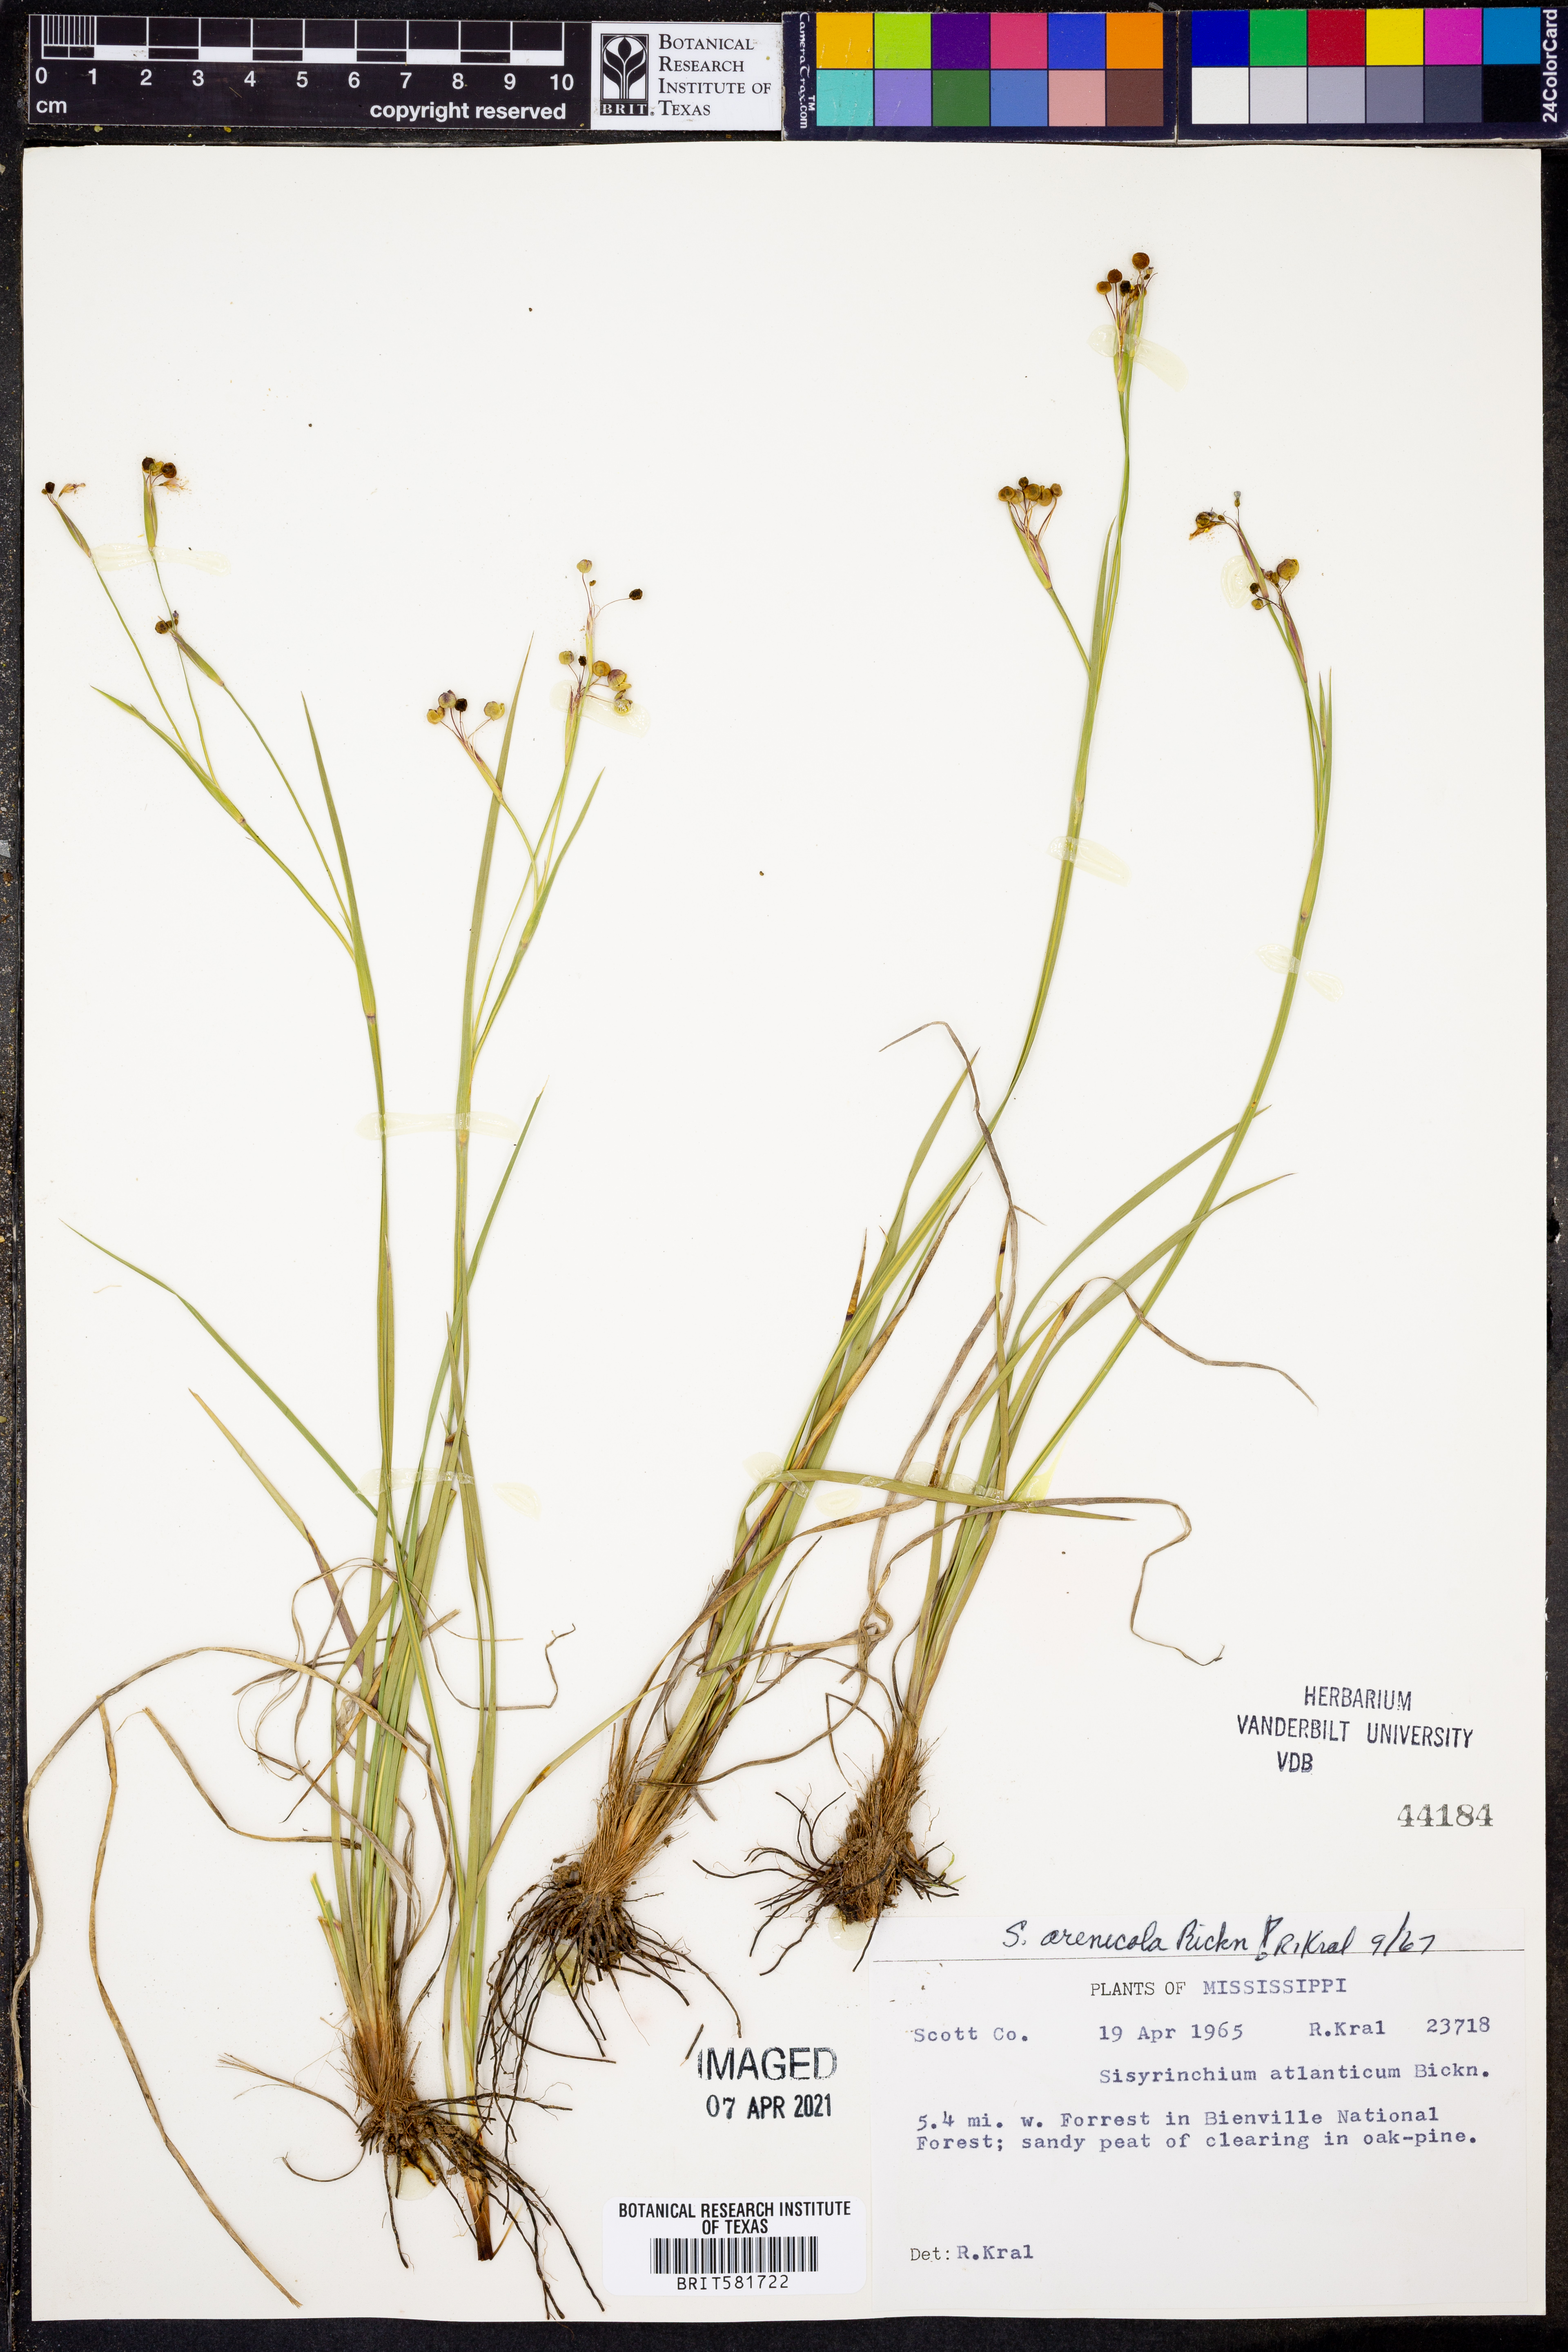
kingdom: Plantae
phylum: Tracheophyta
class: Liliopsida
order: Asparagales
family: Iridaceae
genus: Sisyrinchium
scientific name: Sisyrinchium fuscatum
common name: Coastal plain blue-eyed-grass
